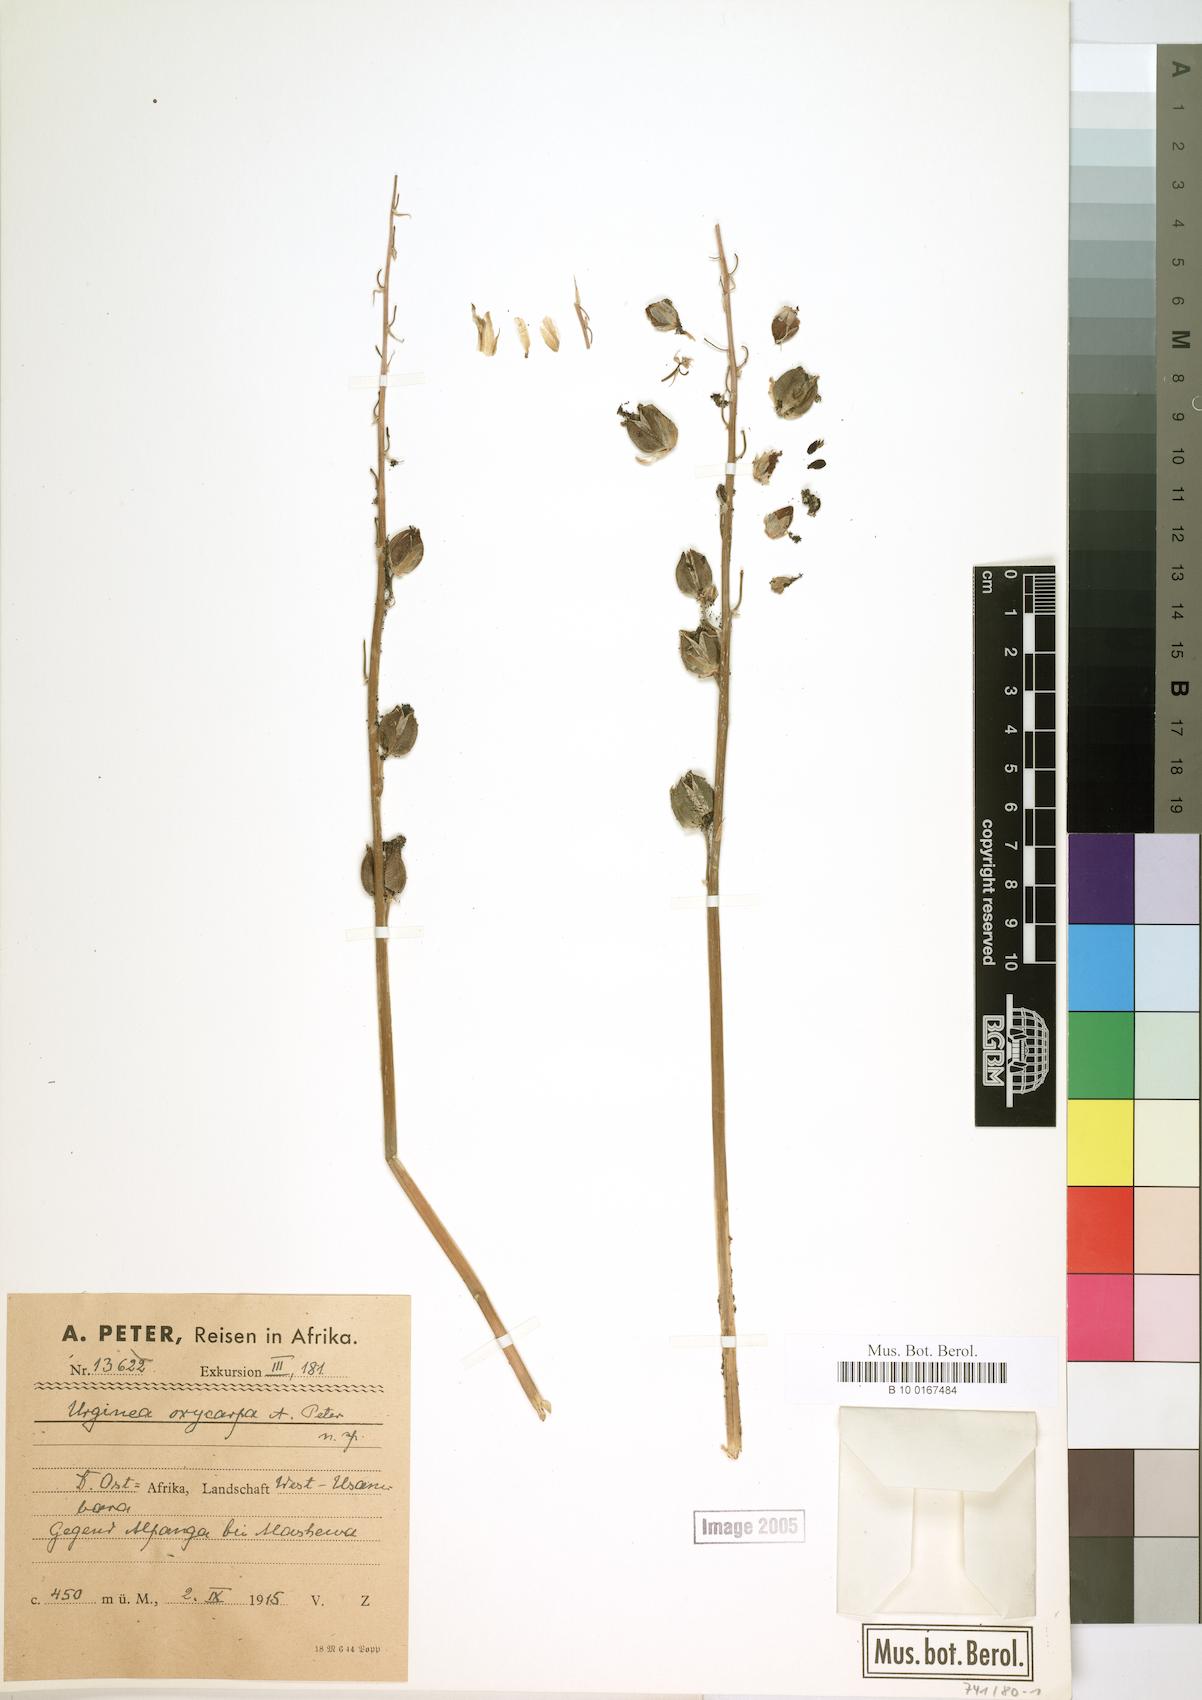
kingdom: Plantae
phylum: Tracheophyta
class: Liliopsida
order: Asparagales
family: Asparagaceae
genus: Drimia
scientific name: Drimia
